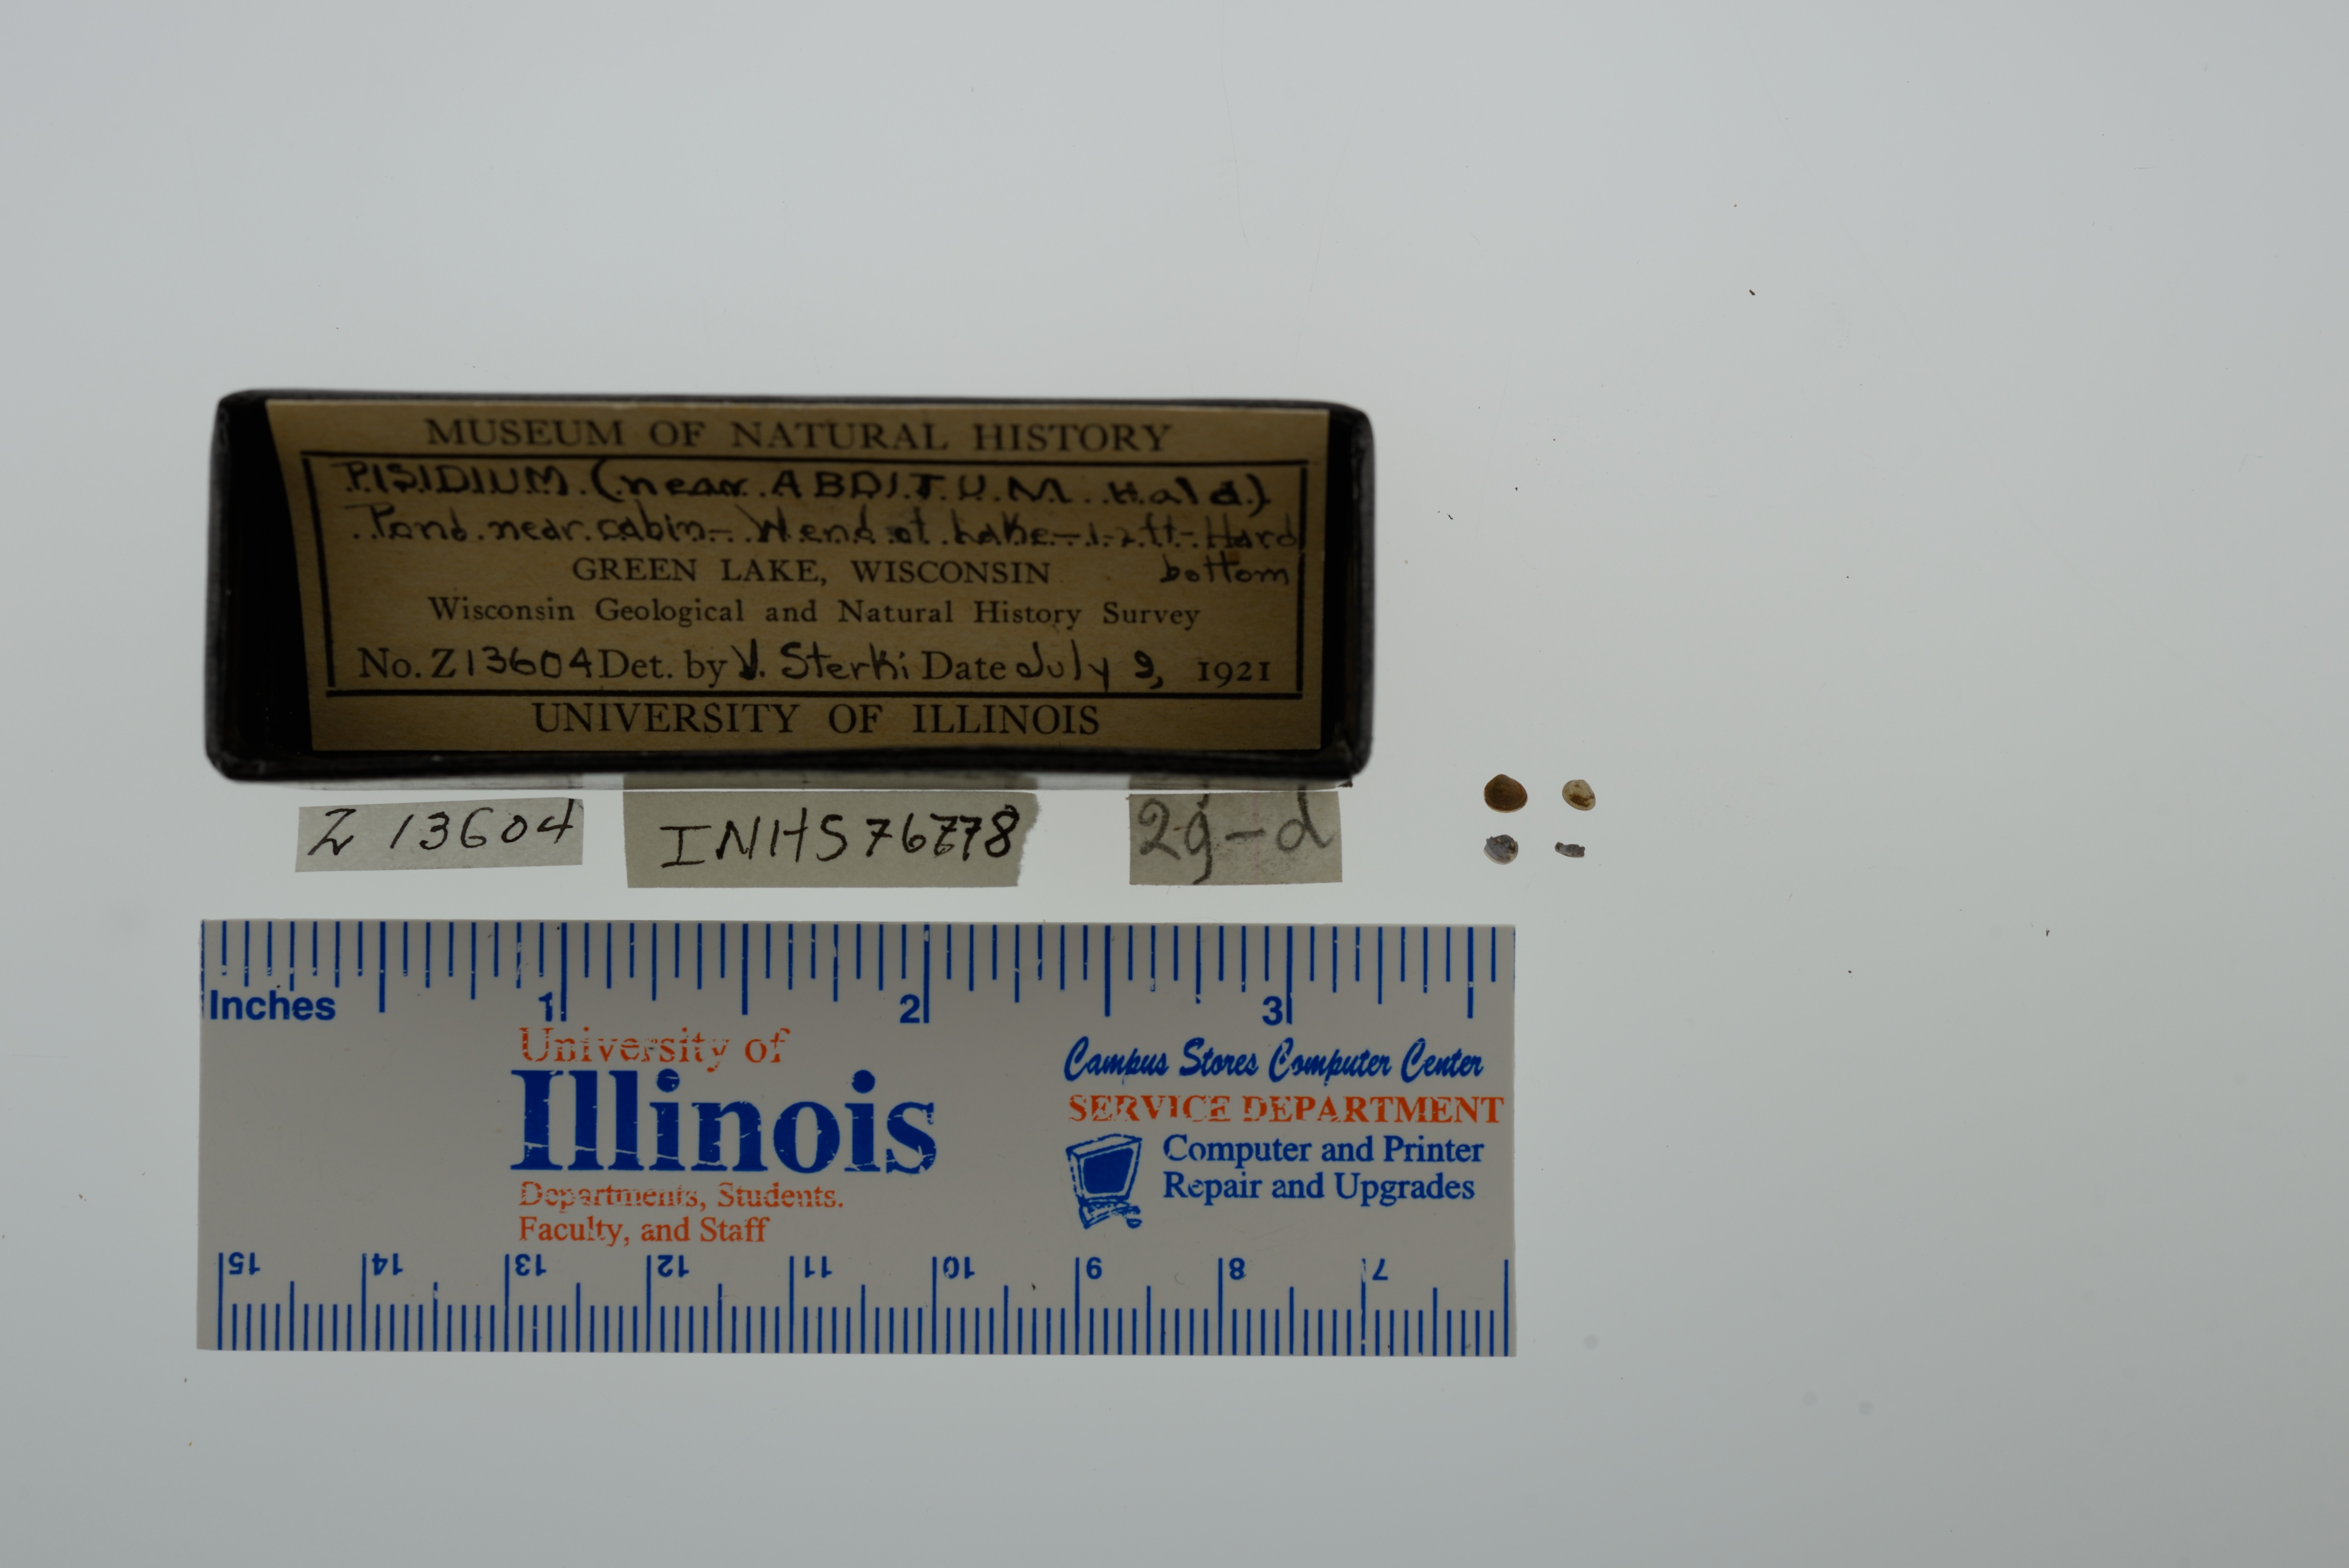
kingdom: Animalia
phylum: Mollusca
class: Bivalvia
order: Sphaeriida
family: Sphaeriidae
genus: Euglesa
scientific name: Euglesa casertana
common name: Caserta pea mussel
